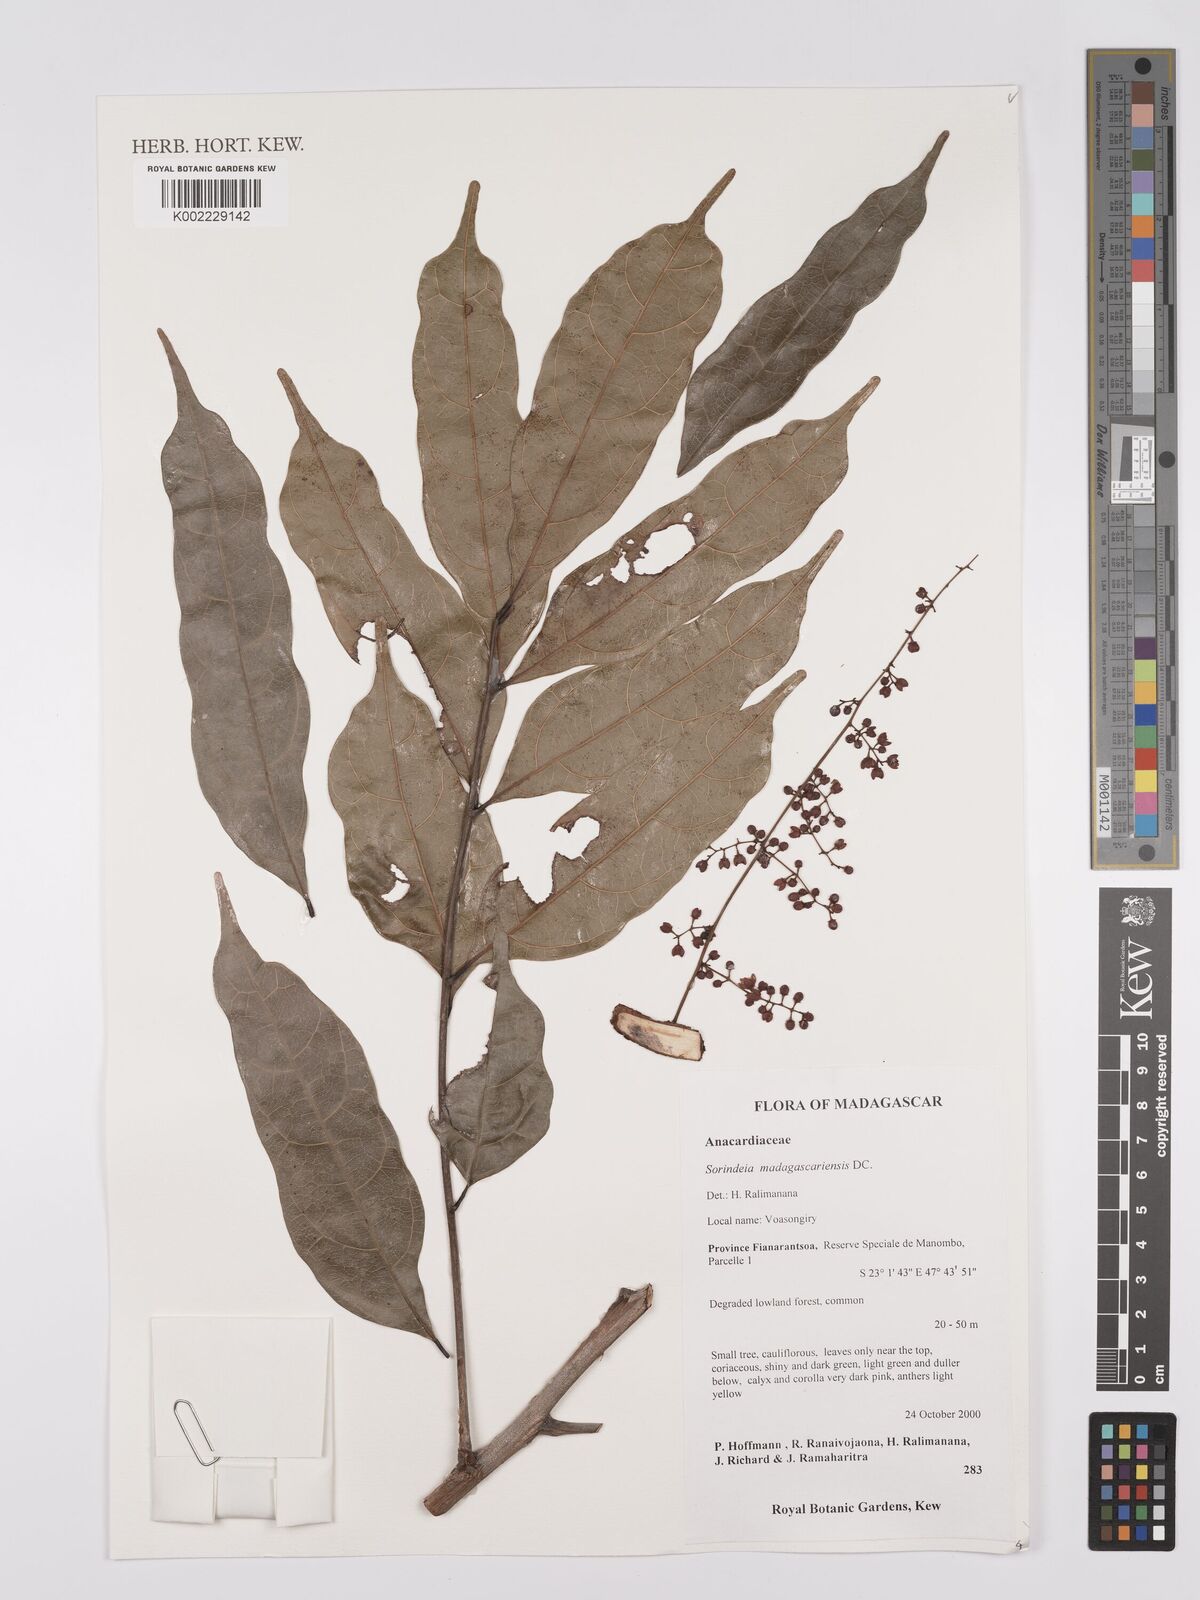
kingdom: Plantae
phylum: Tracheophyta
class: Magnoliopsida
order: Sapindales
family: Anacardiaceae
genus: Sorindeia
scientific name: Sorindeia madagascariensis
